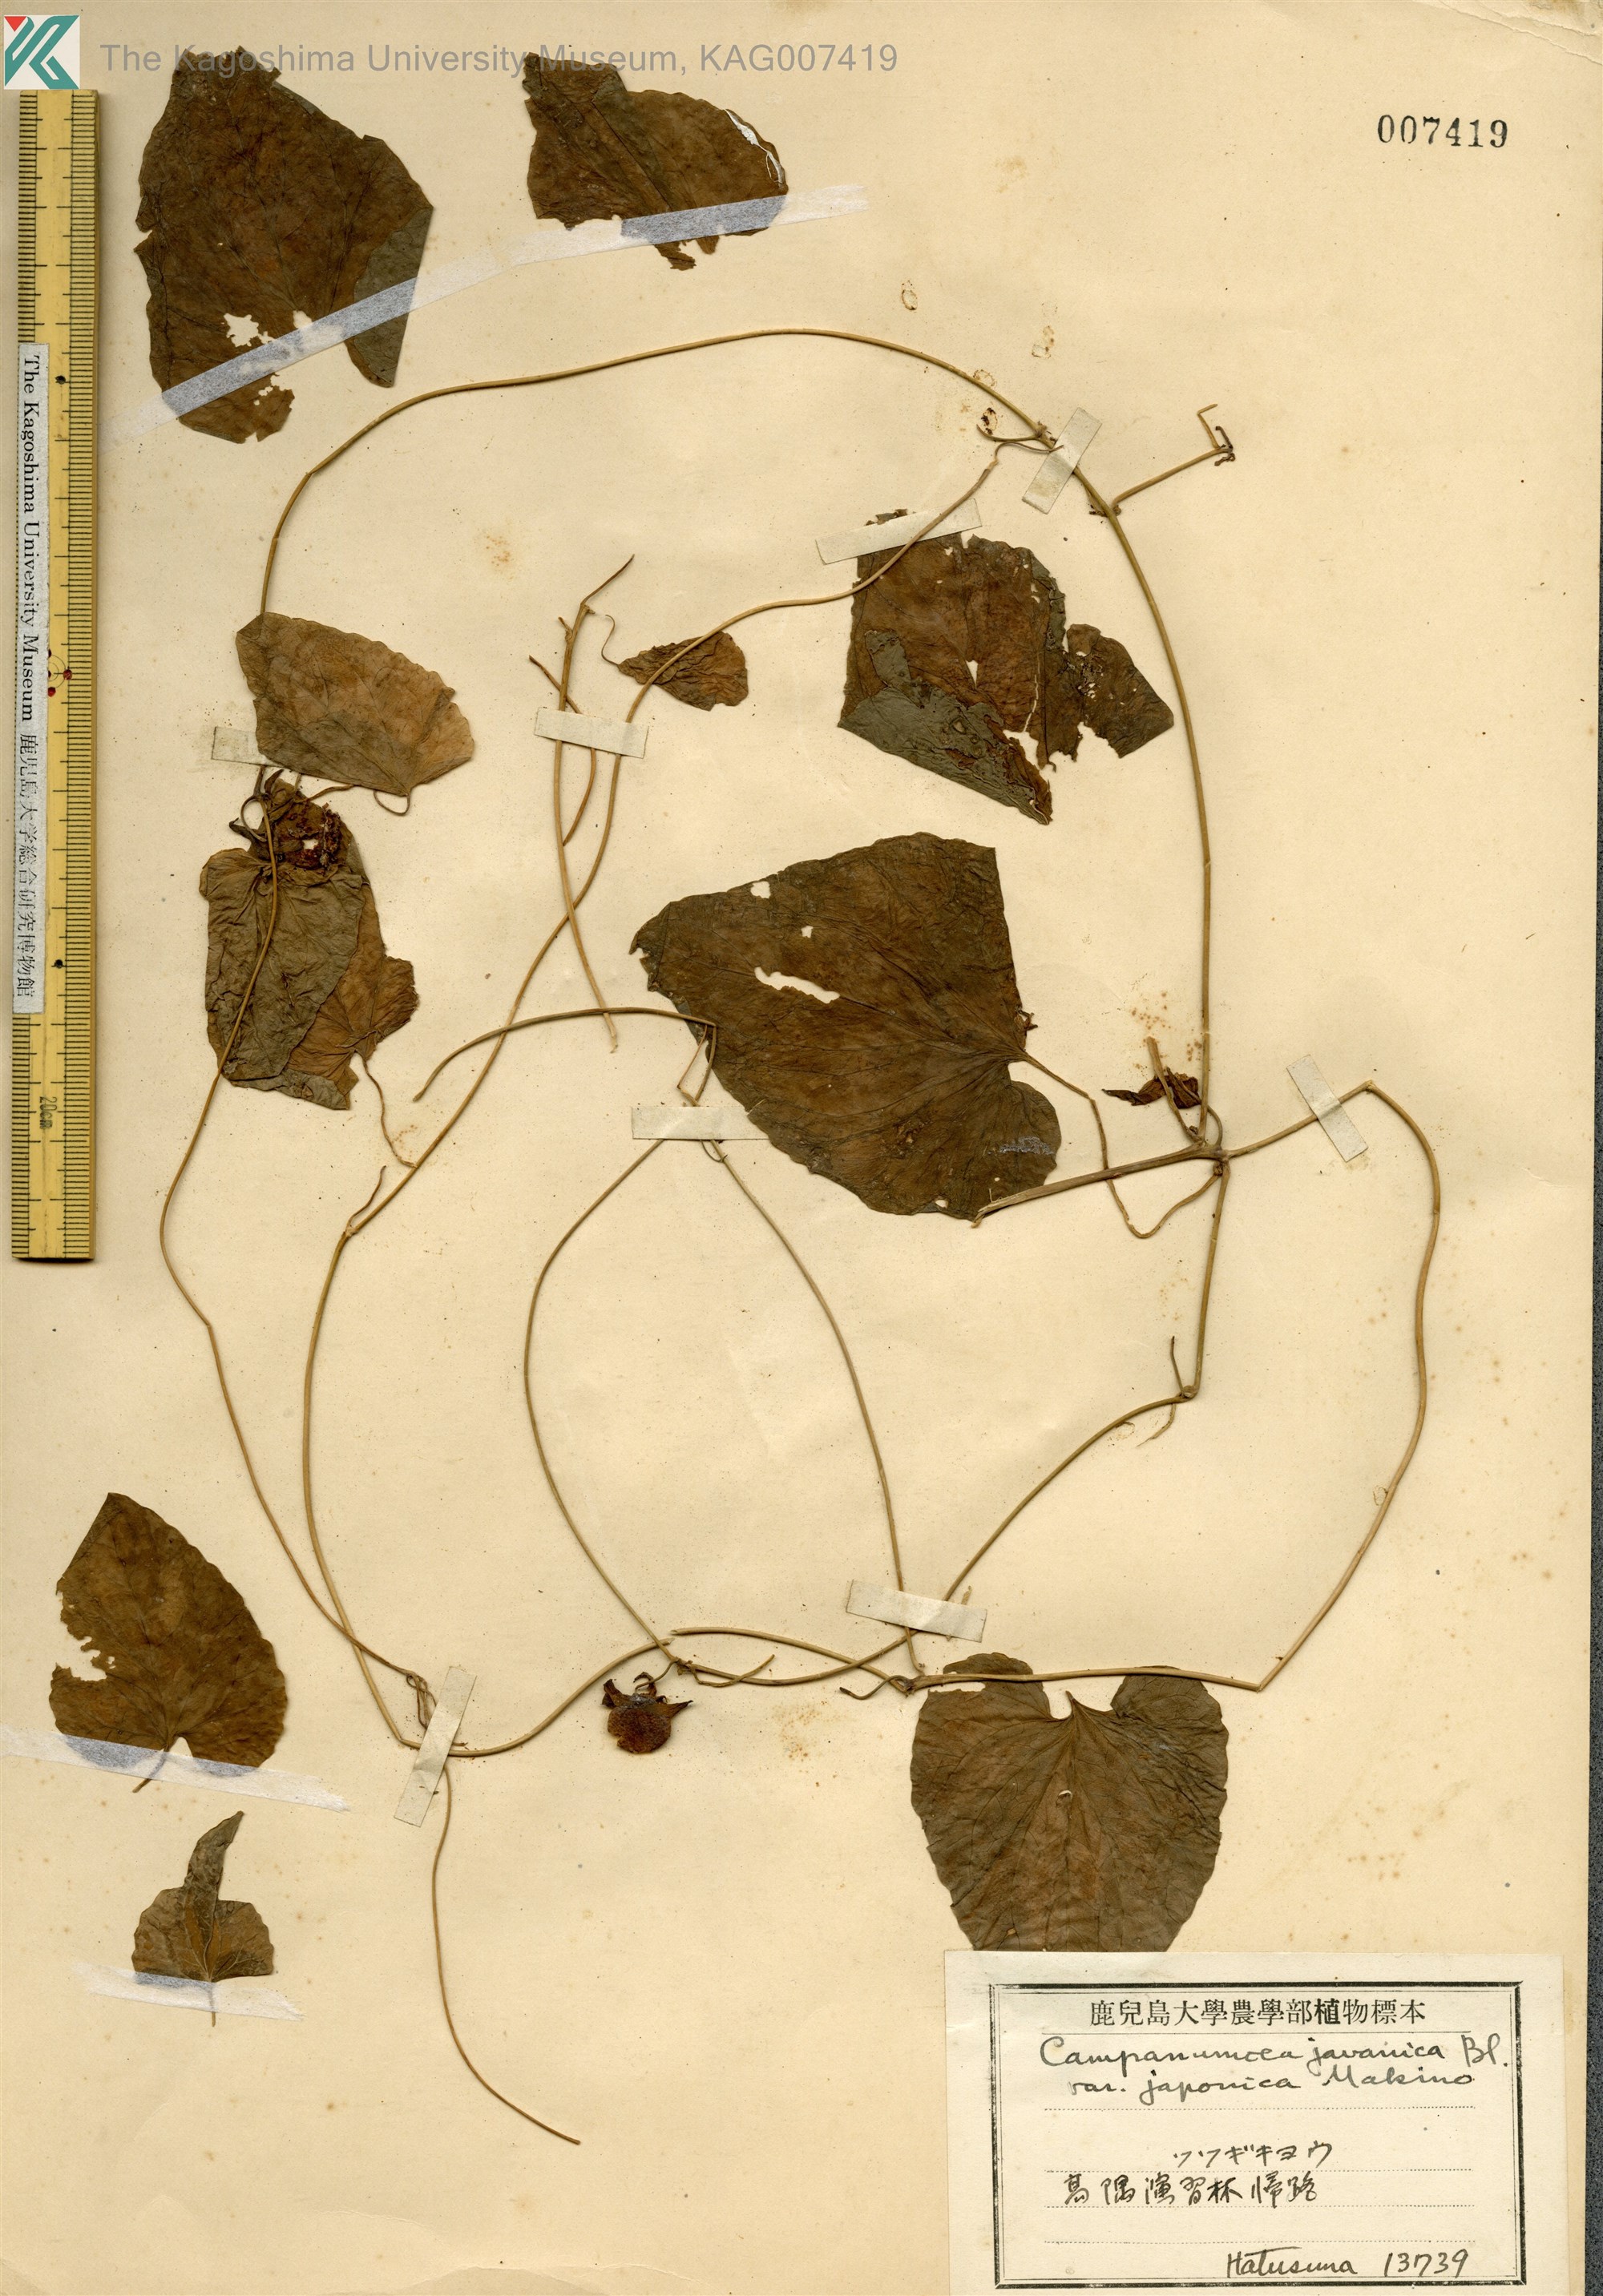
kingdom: Plantae
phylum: Tracheophyta
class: Magnoliopsida
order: Asterales
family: Campanulaceae
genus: Codonopsis
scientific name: Codonopsis javanica
